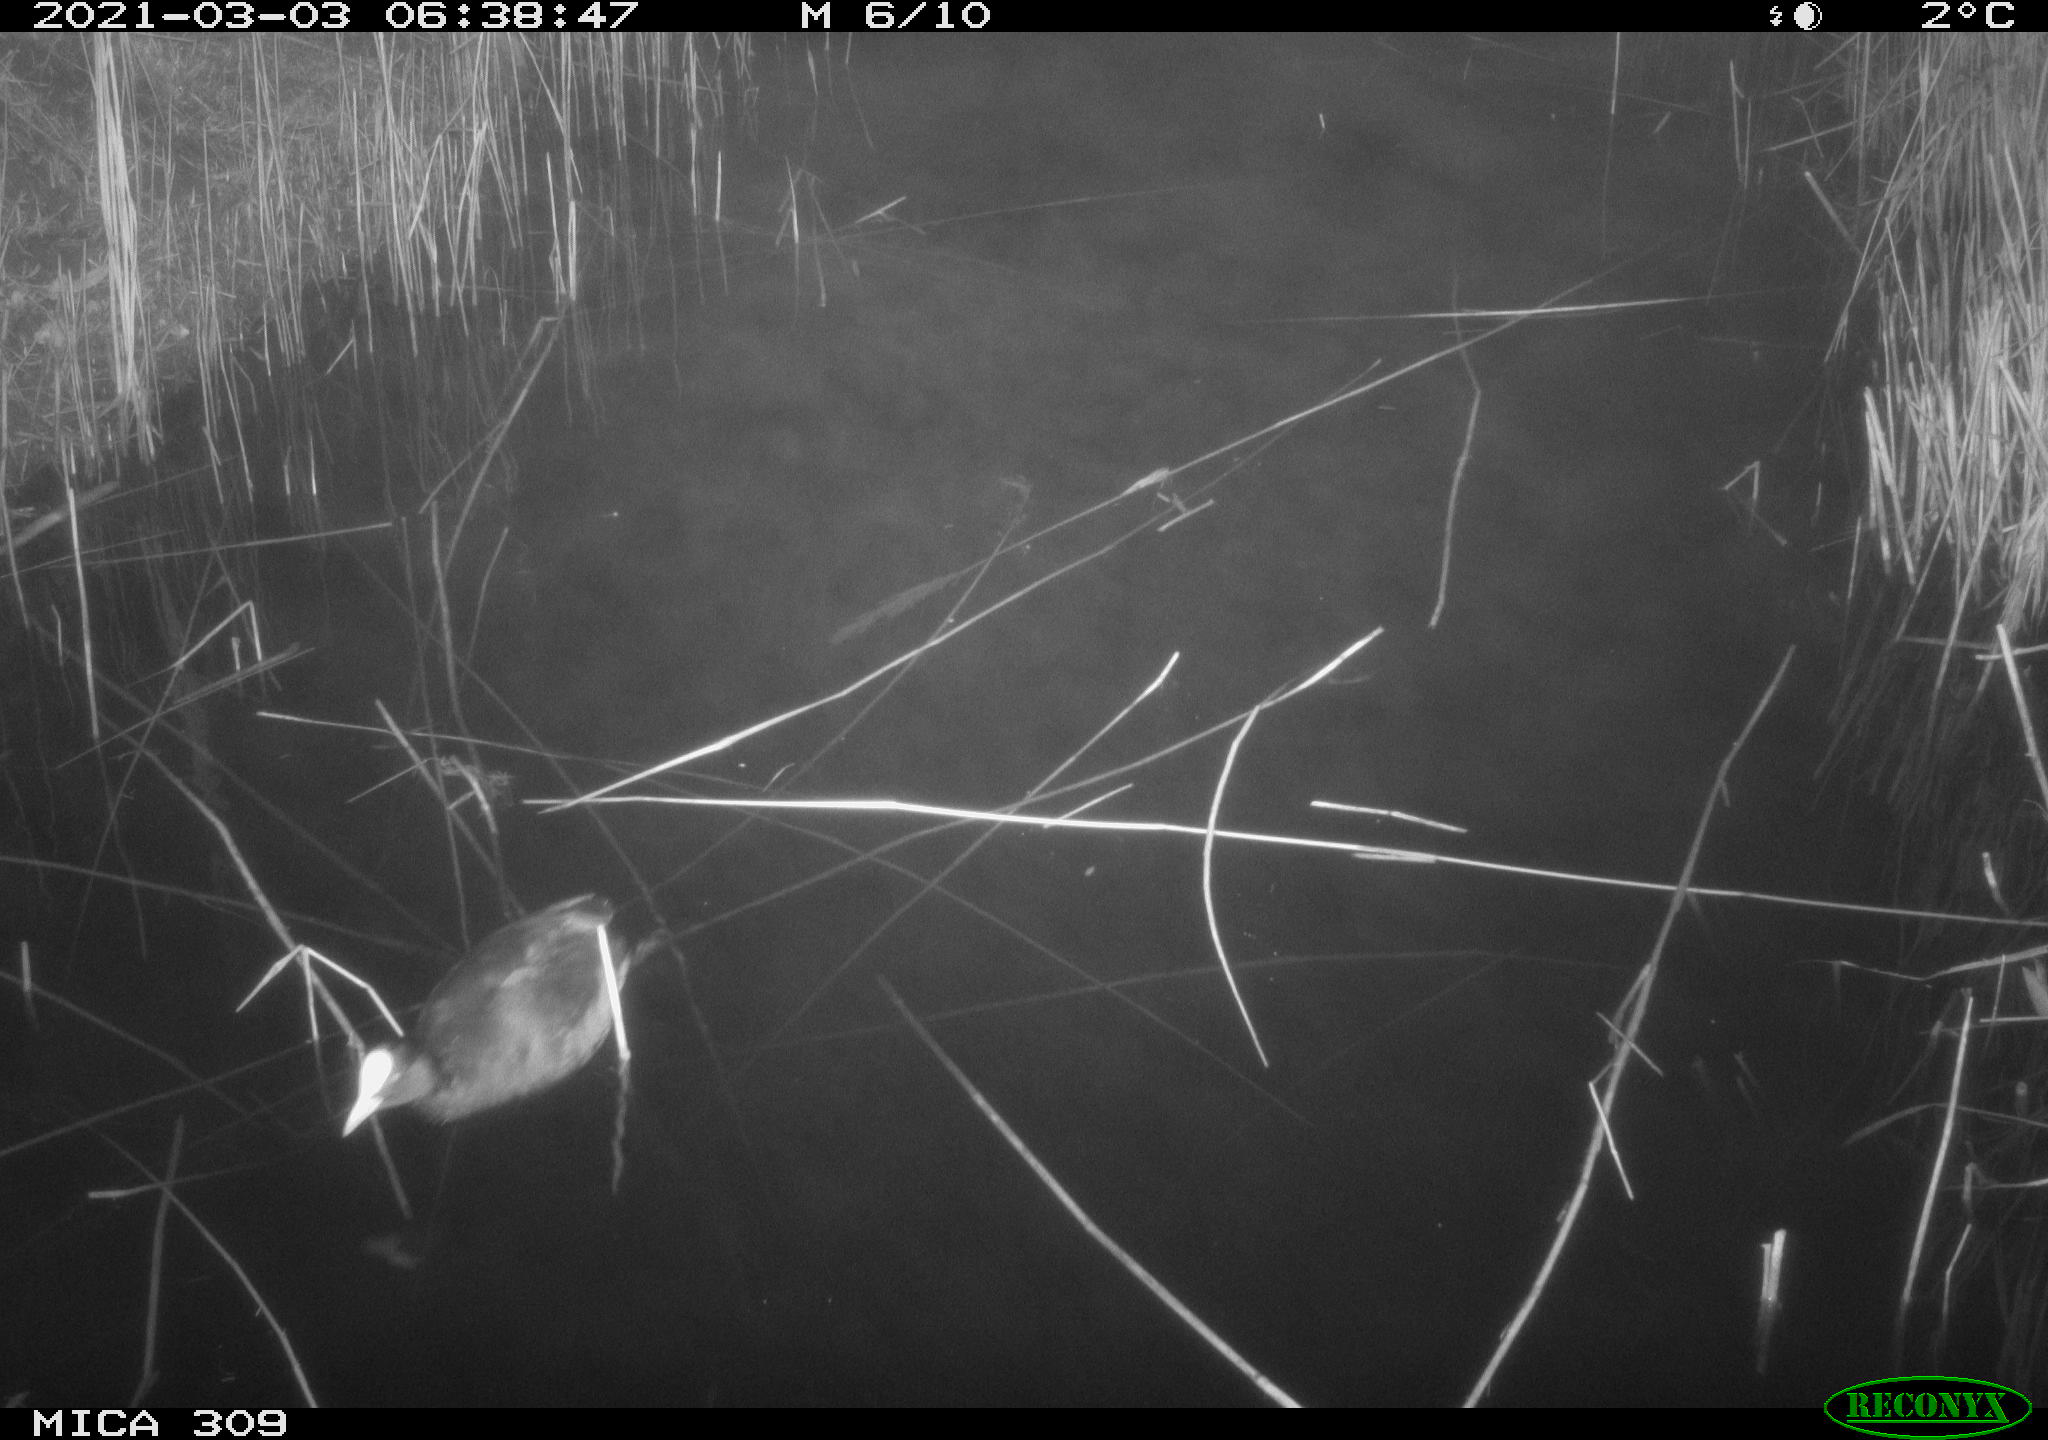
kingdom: Animalia
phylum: Chordata
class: Aves
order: Gruiformes
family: Rallidae
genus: Fulica
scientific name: Fulica atra
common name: Eurasian coot
